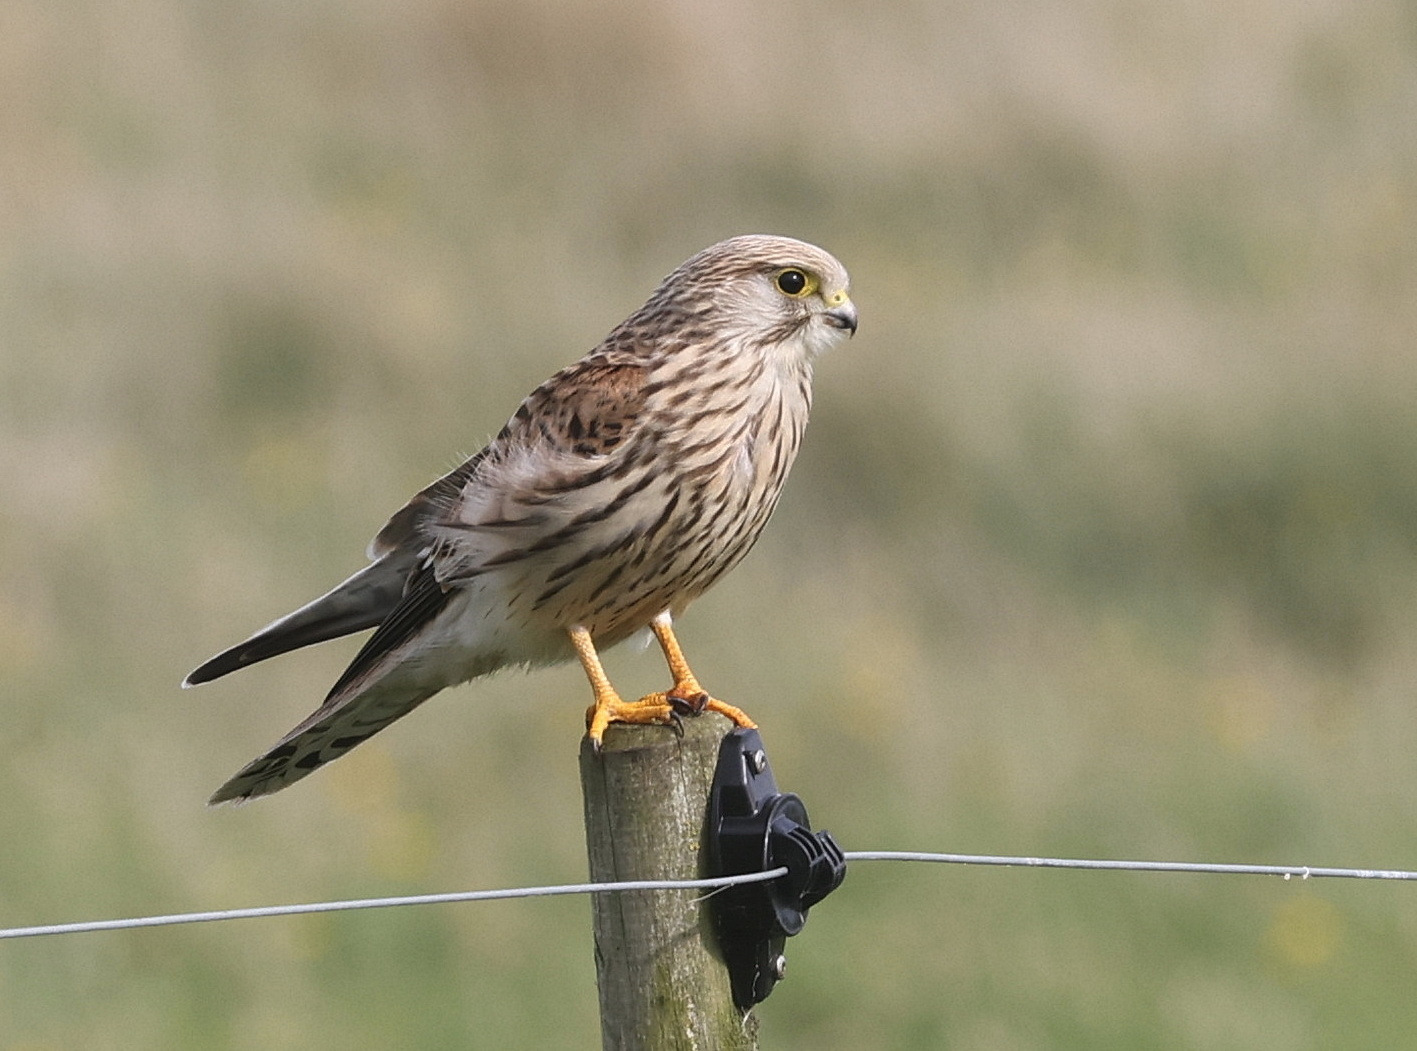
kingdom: Animalia
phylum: Chordata
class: Aves
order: Falconiformes
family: Falconidae
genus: Falco
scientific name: Falco tinnunculus
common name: Tårnfalk
